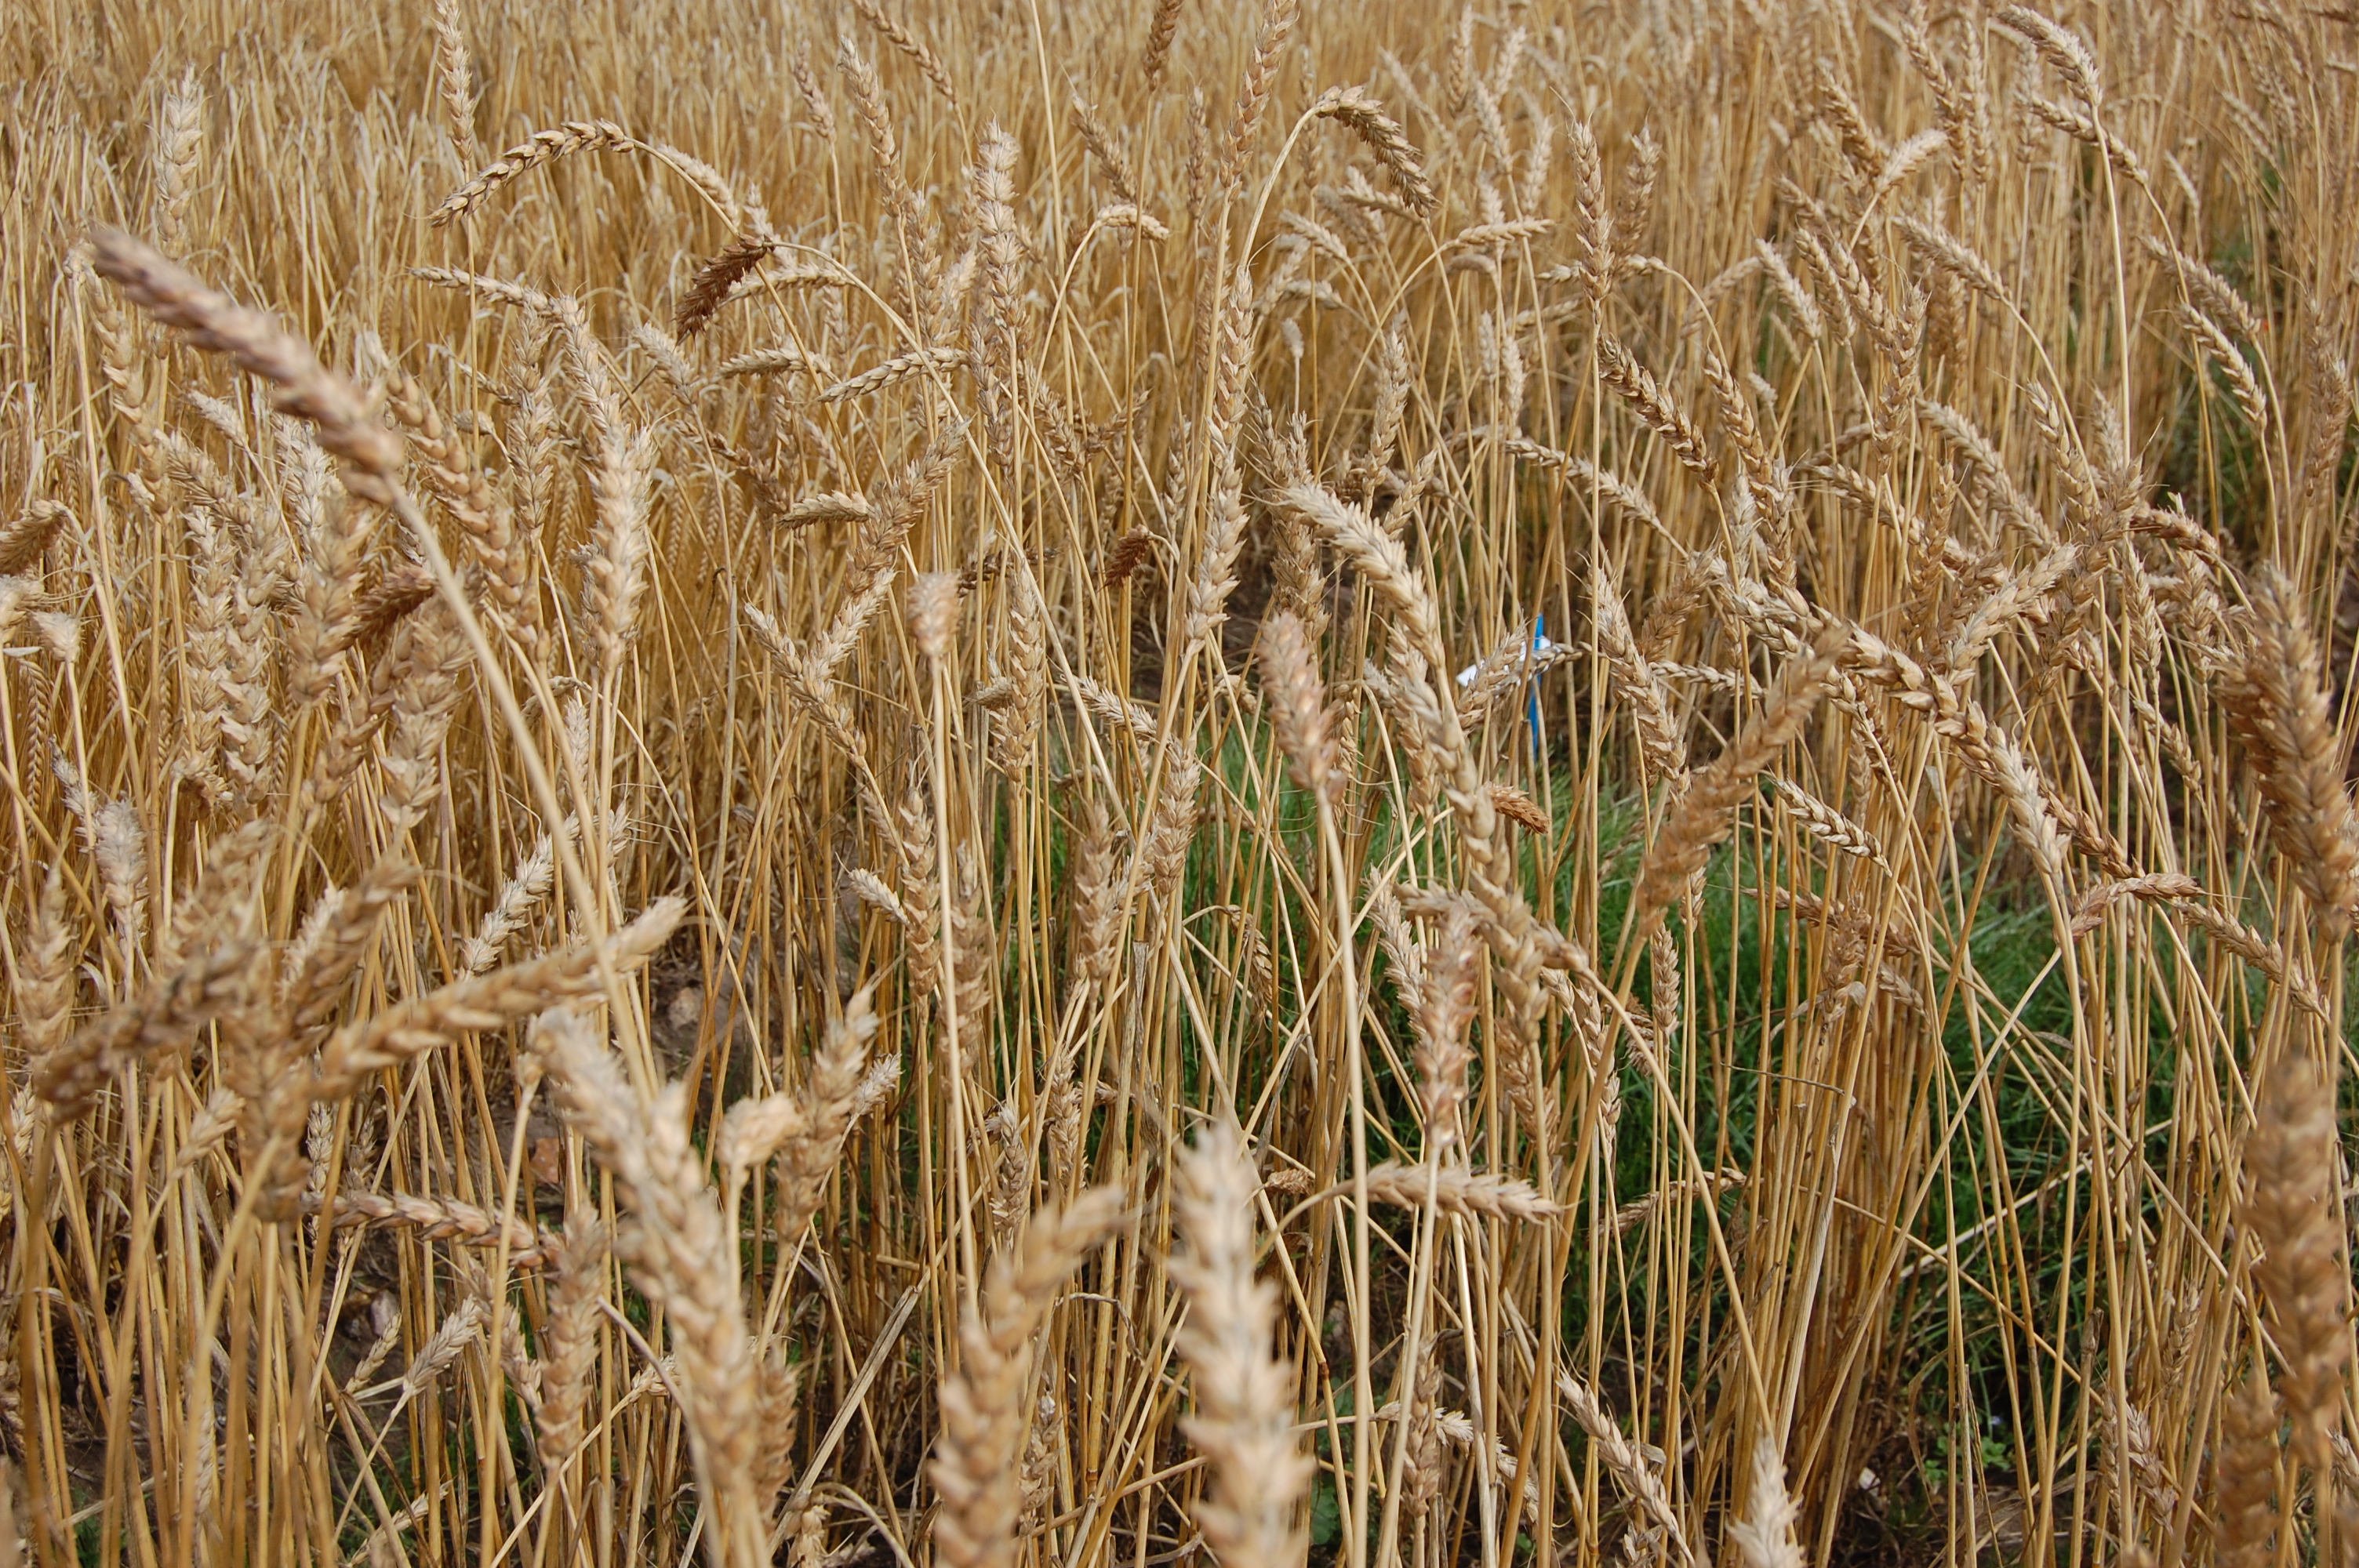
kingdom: Plantae
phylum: Tracheophyta
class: Liliopsida
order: Poales
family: Poaceae
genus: Triticum
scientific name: Triticum aestivum
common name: Common wheat
